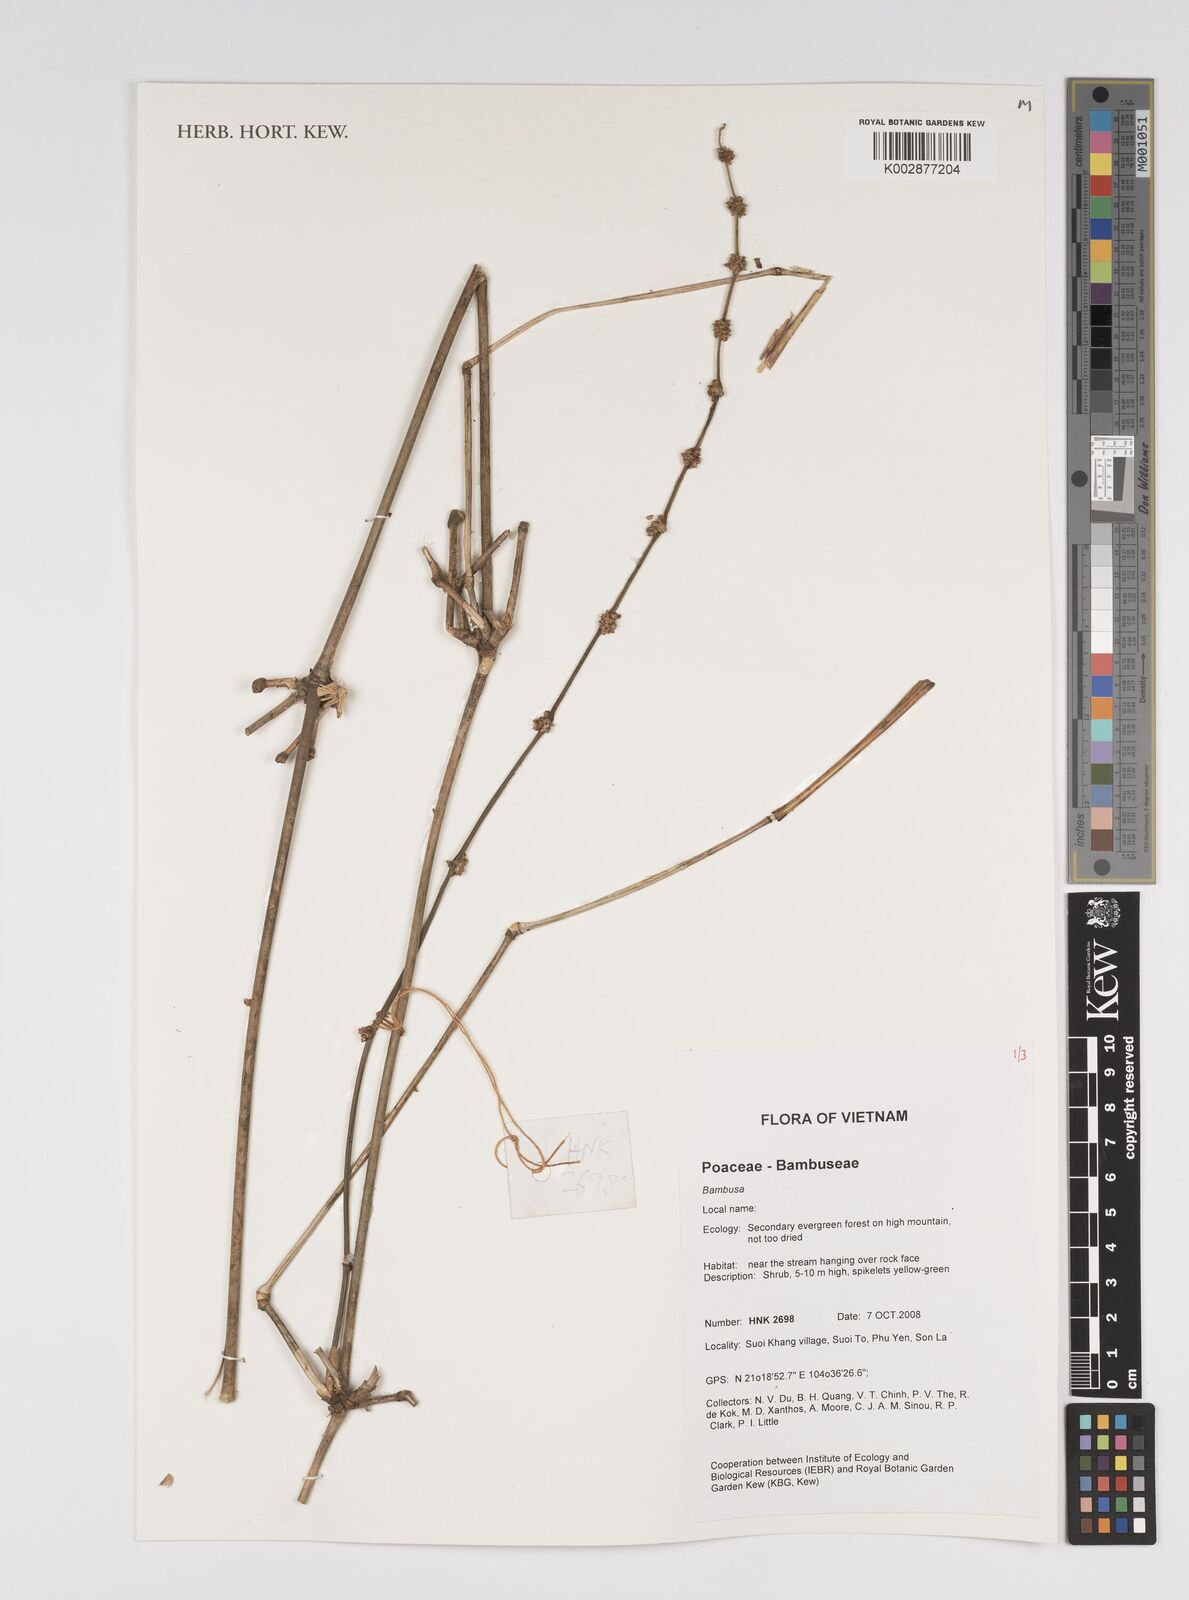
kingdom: Plantae
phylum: Tracheophyta
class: Liliopsida
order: Poales
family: Poaceae
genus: Bambusa
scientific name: Bambusa
